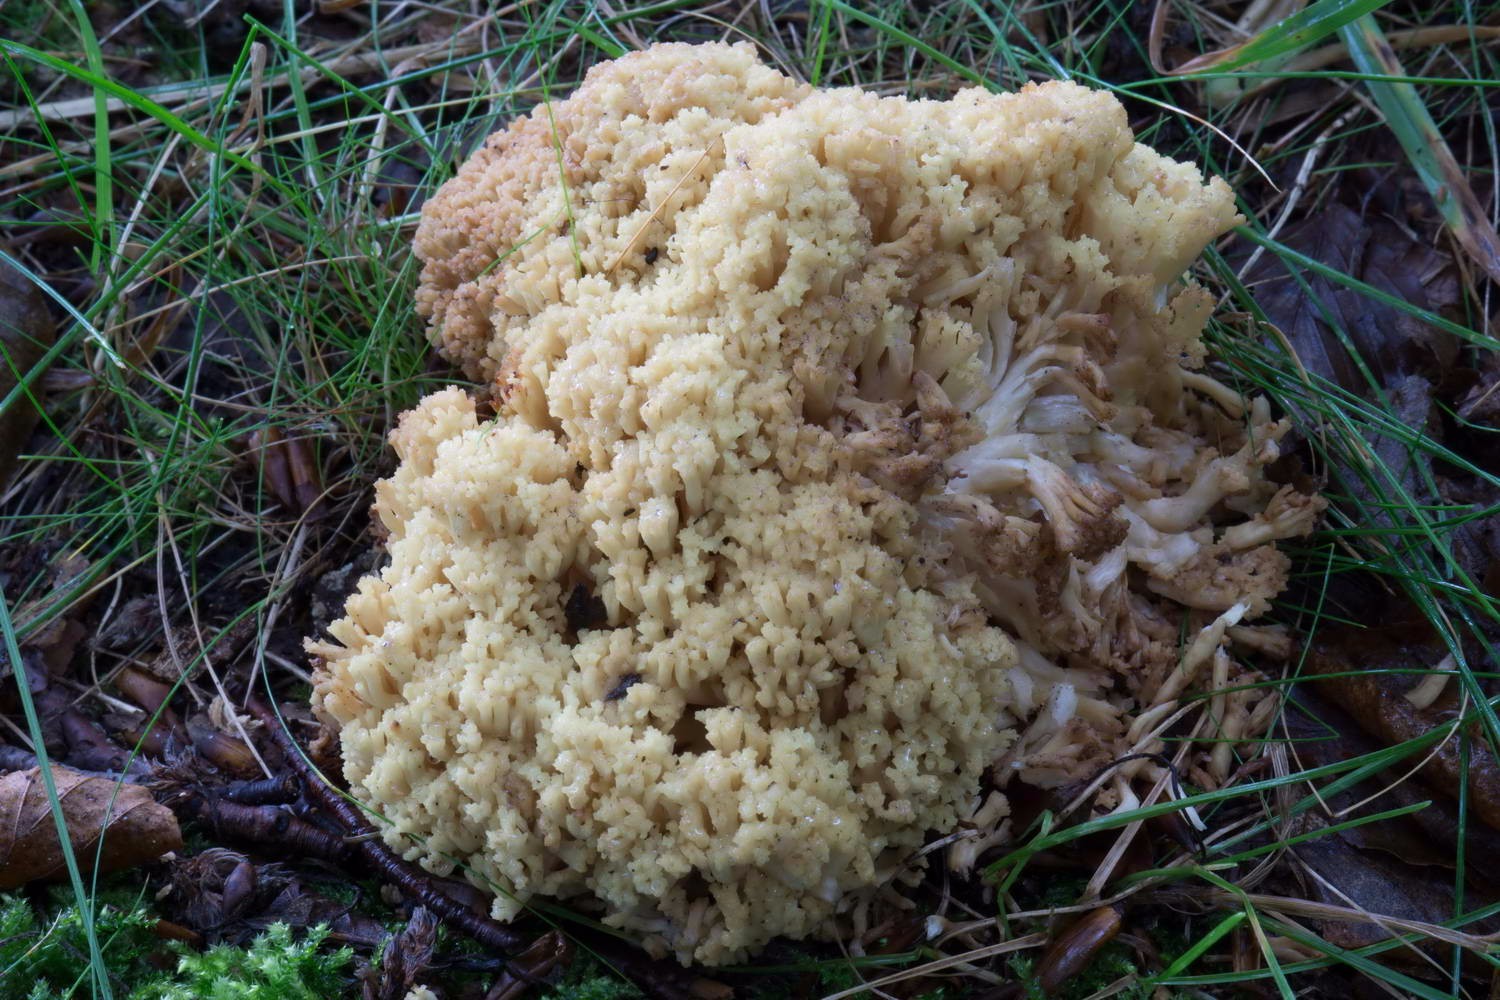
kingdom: Fungi
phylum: Basidiomycota
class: Agaricomycetes
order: Gomphales
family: Gomphaceae
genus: Ramaria
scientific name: Ramaria sanguinea
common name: blodplettet koralsvamp
